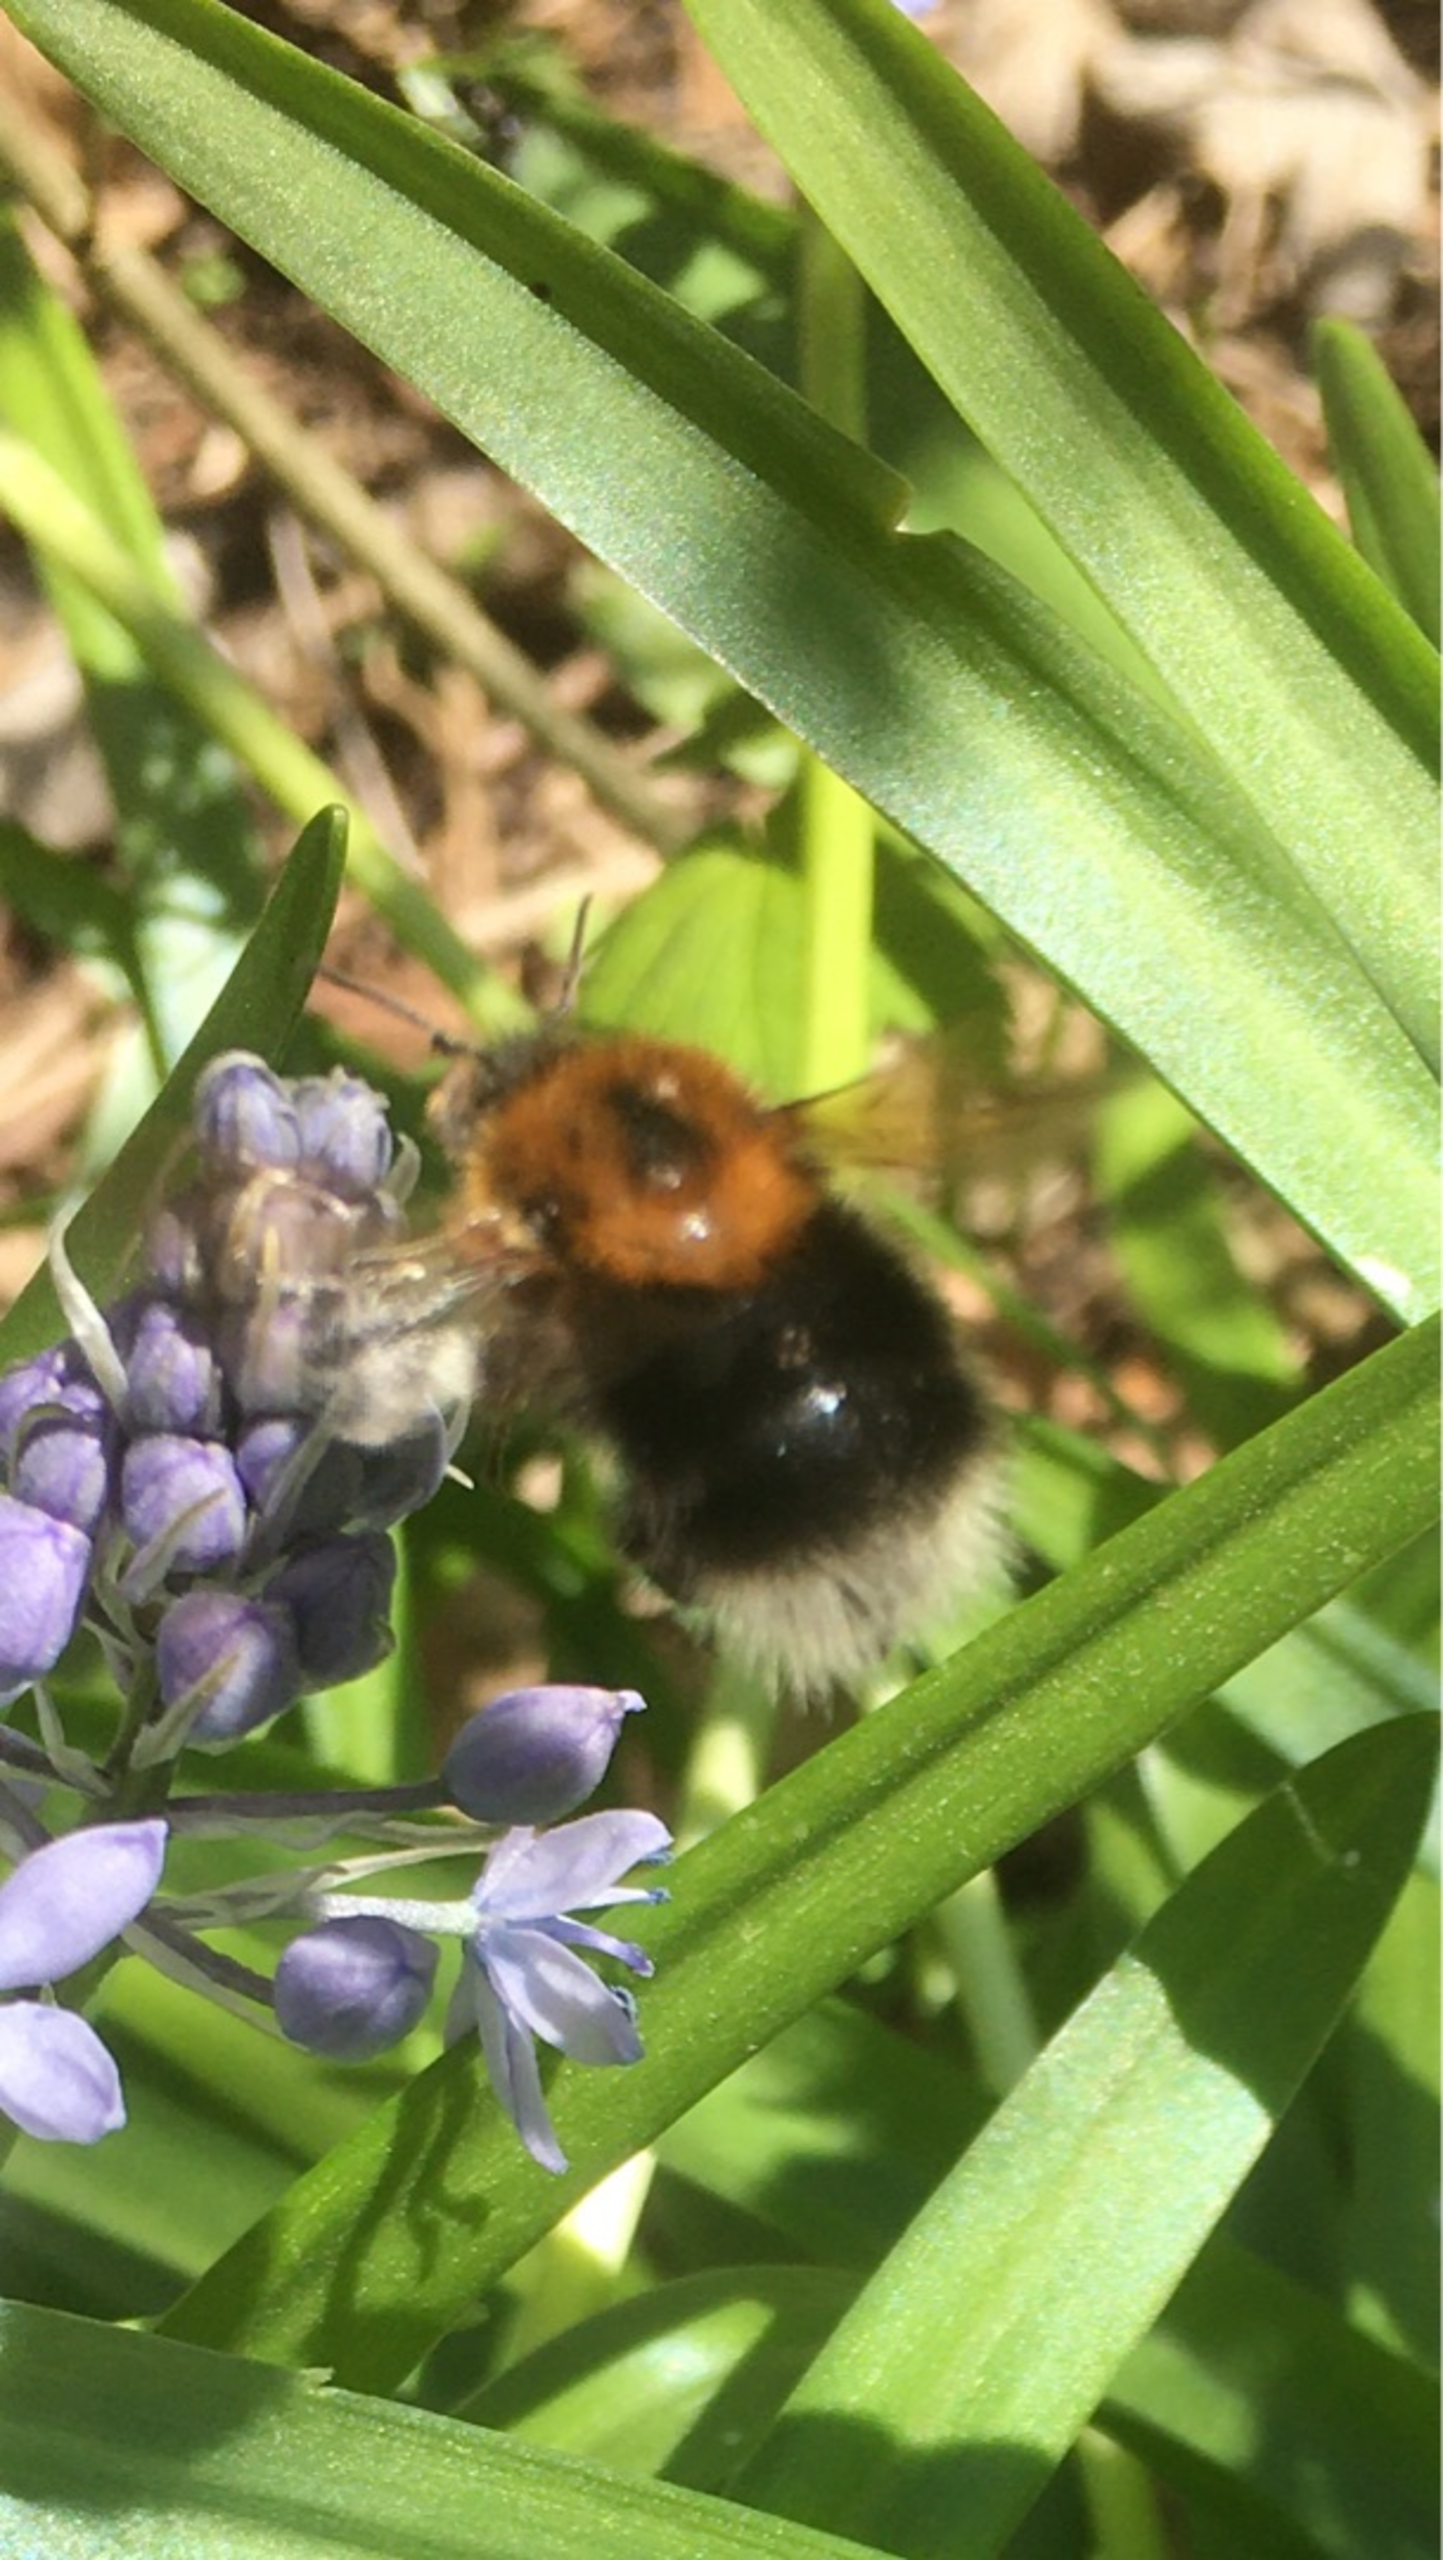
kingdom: Animalia
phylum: Arthropoda
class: Insecta
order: Hymenoptera
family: Apidae
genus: Bombus
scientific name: Bombus hypnorum
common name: Hushumle
